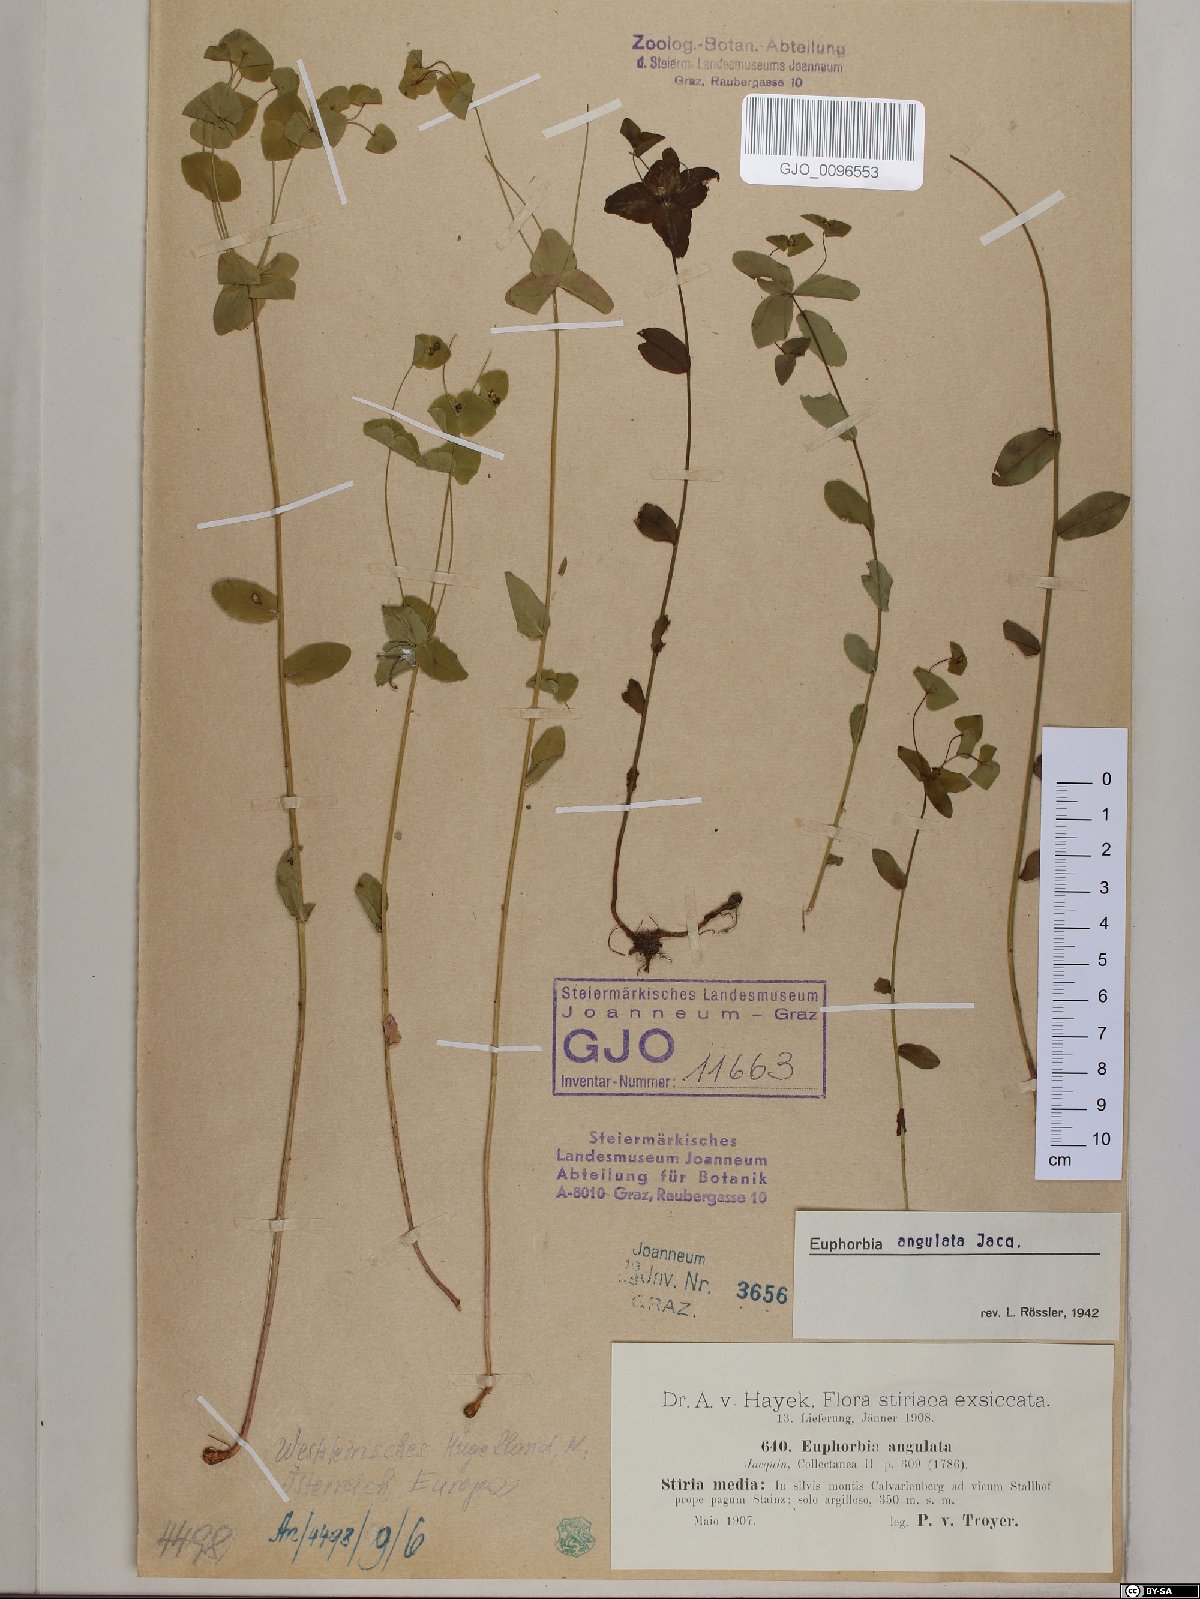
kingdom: Plantae
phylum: Tracheophyta
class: Magnoliopsida
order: Malpighiales
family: Euphorbiaceae
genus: Euphorbia
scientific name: Euphorbia angulata
